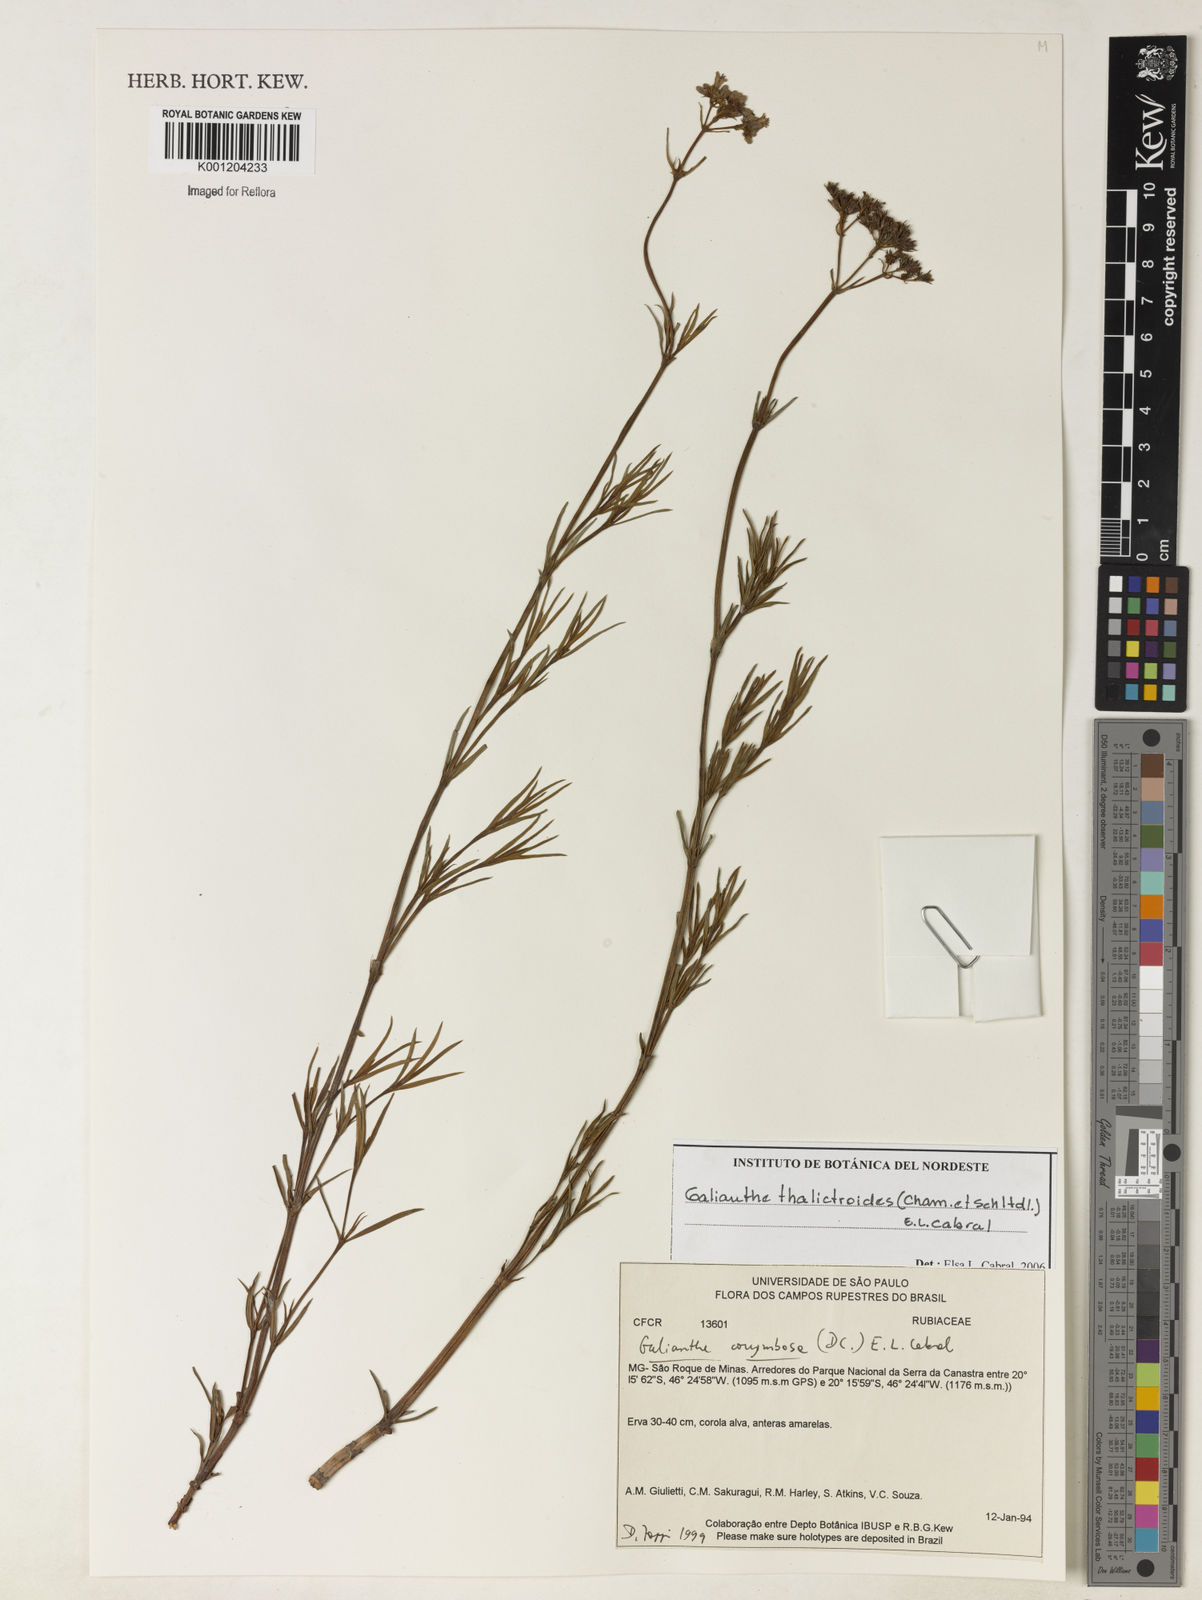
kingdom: Plantae
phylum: Tracheophyta
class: Magnoliopsida
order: Gentianales
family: Rubiaceae
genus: Galianthe
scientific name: Galianthe thalictroides
